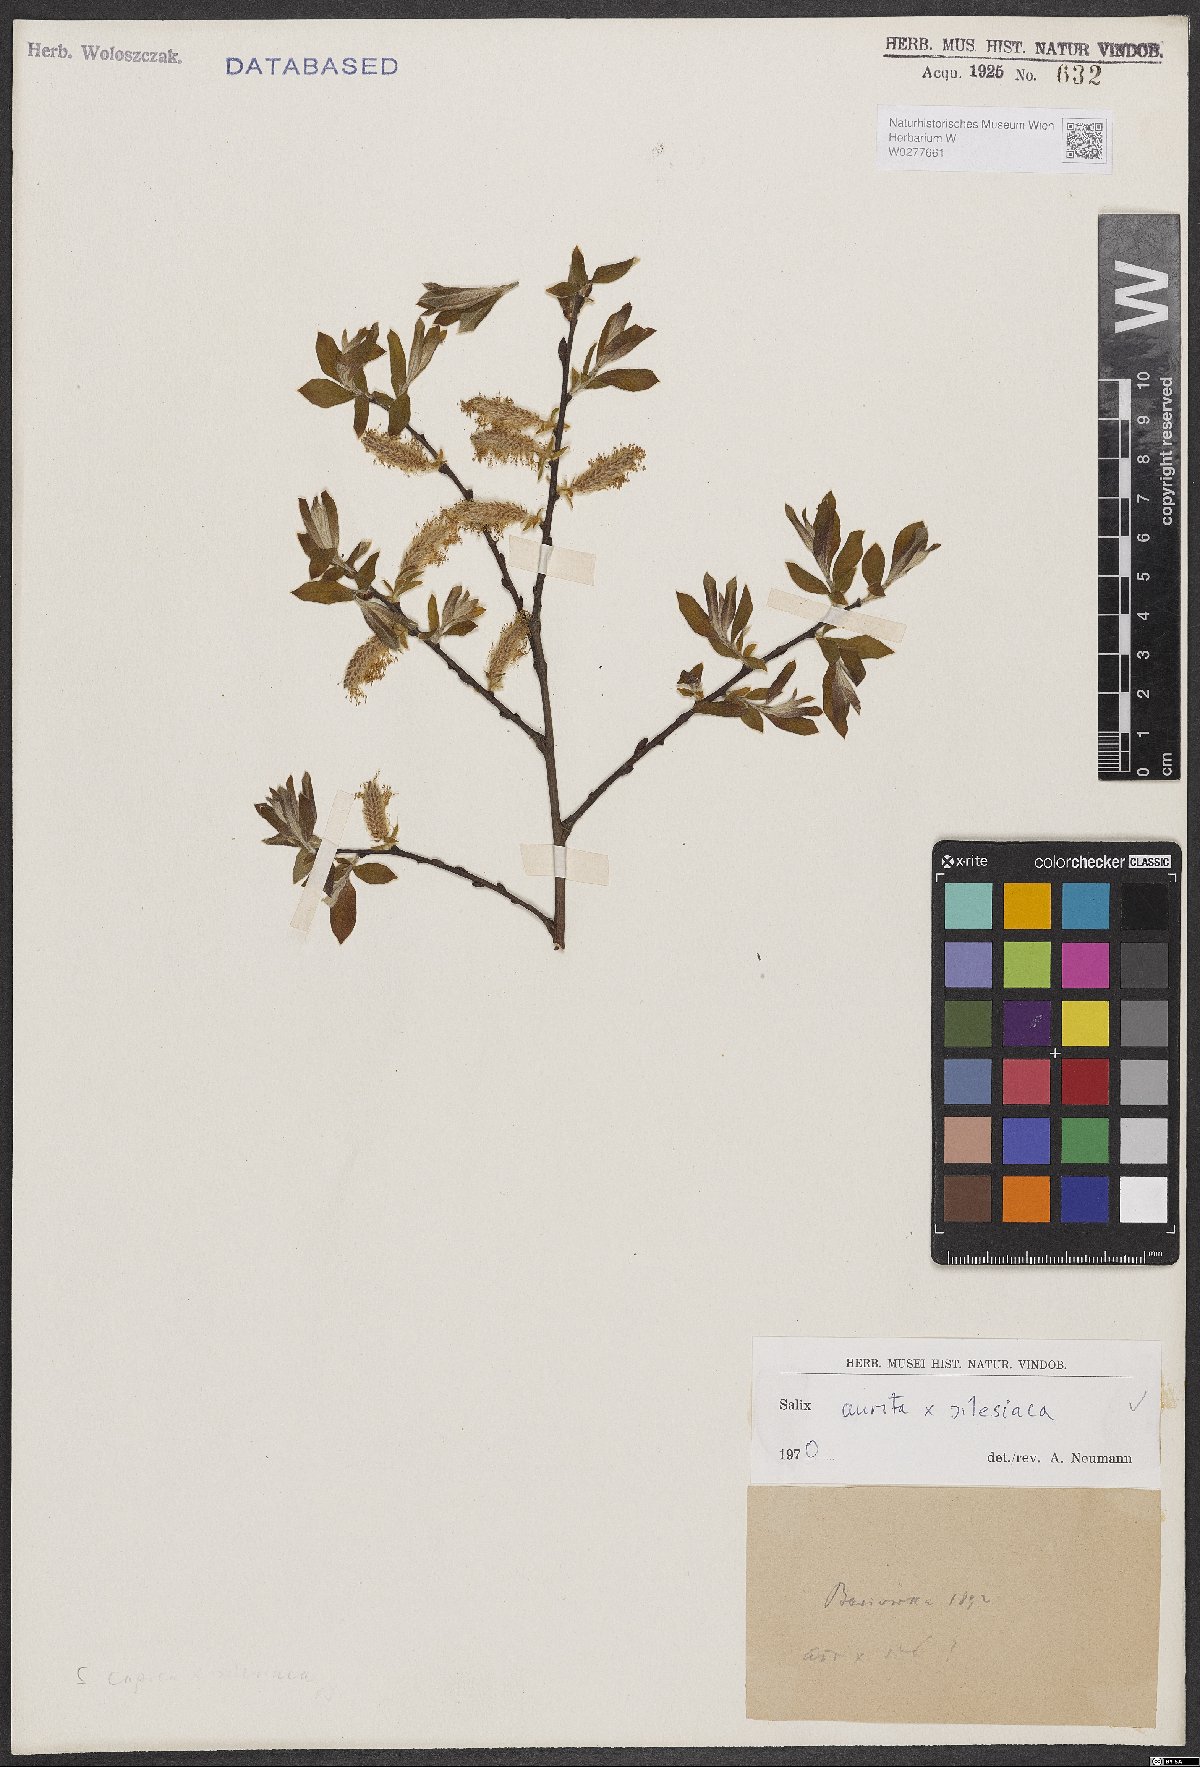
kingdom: Plantae
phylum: Tracheophyta
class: Magnoliopsida
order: Malpighiales
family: Salicaceae
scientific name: Salicaceae
